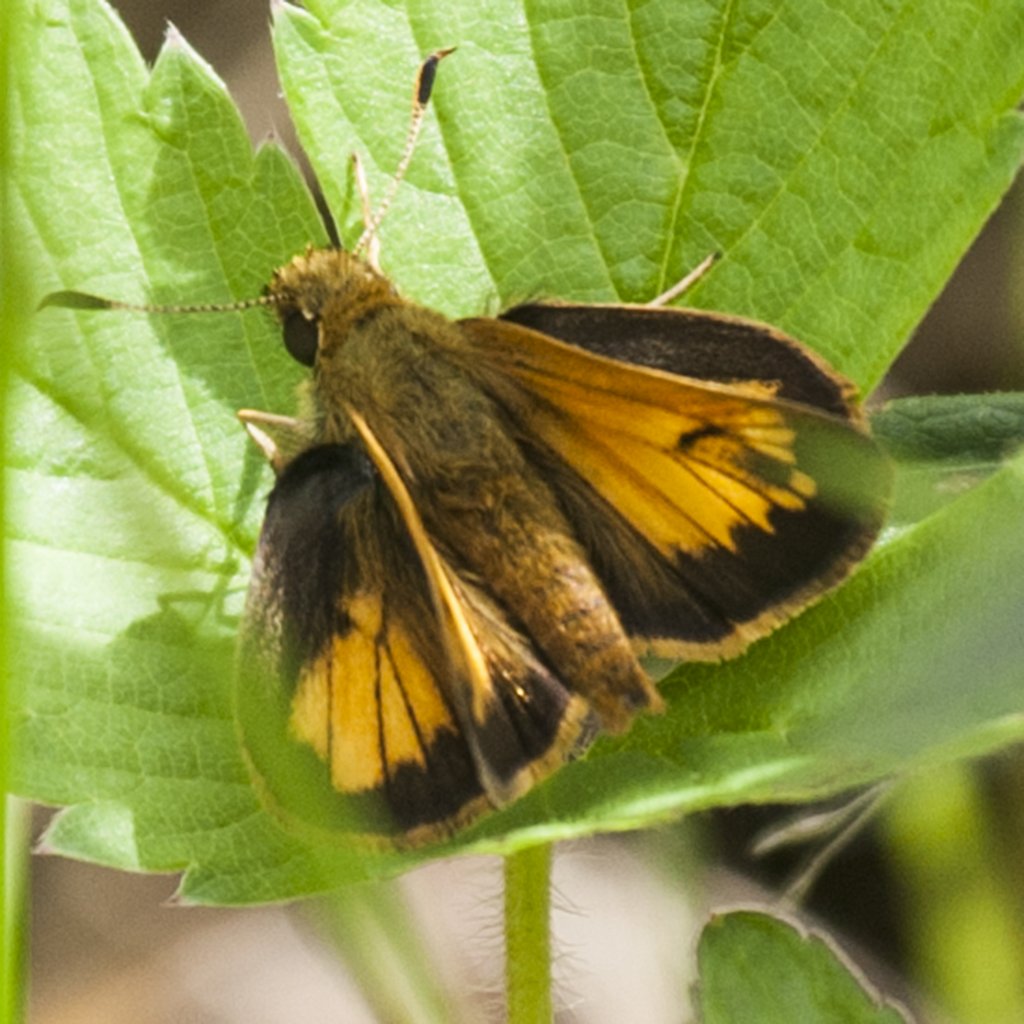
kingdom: Animalia
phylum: Arthropoda
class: Insecta
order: Lepidoptera
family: Hesperiidae
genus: Lon
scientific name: Lon hobomok
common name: Hobomok Skipper
